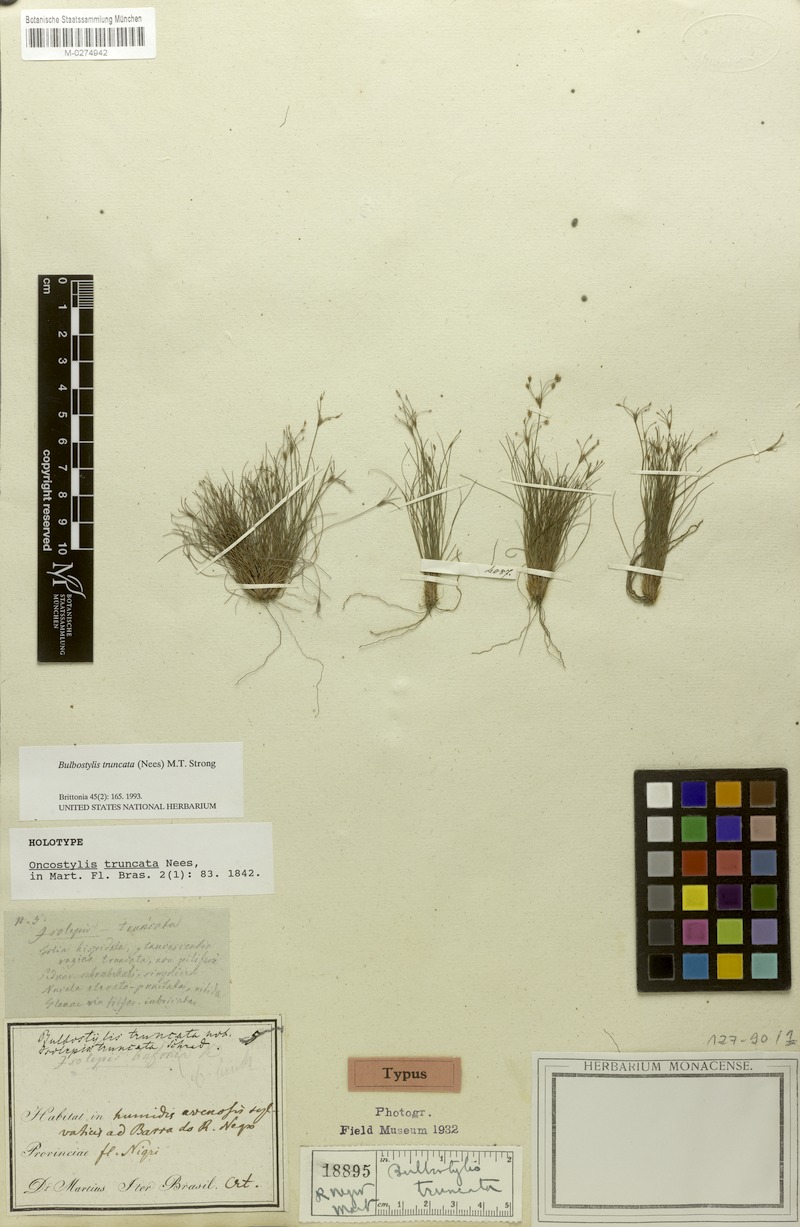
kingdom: Plantae
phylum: Tracheophyta
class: Liliopsida
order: Poales
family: Cyperaceae
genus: Bulbostylis
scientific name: Bulbostylis truncata
